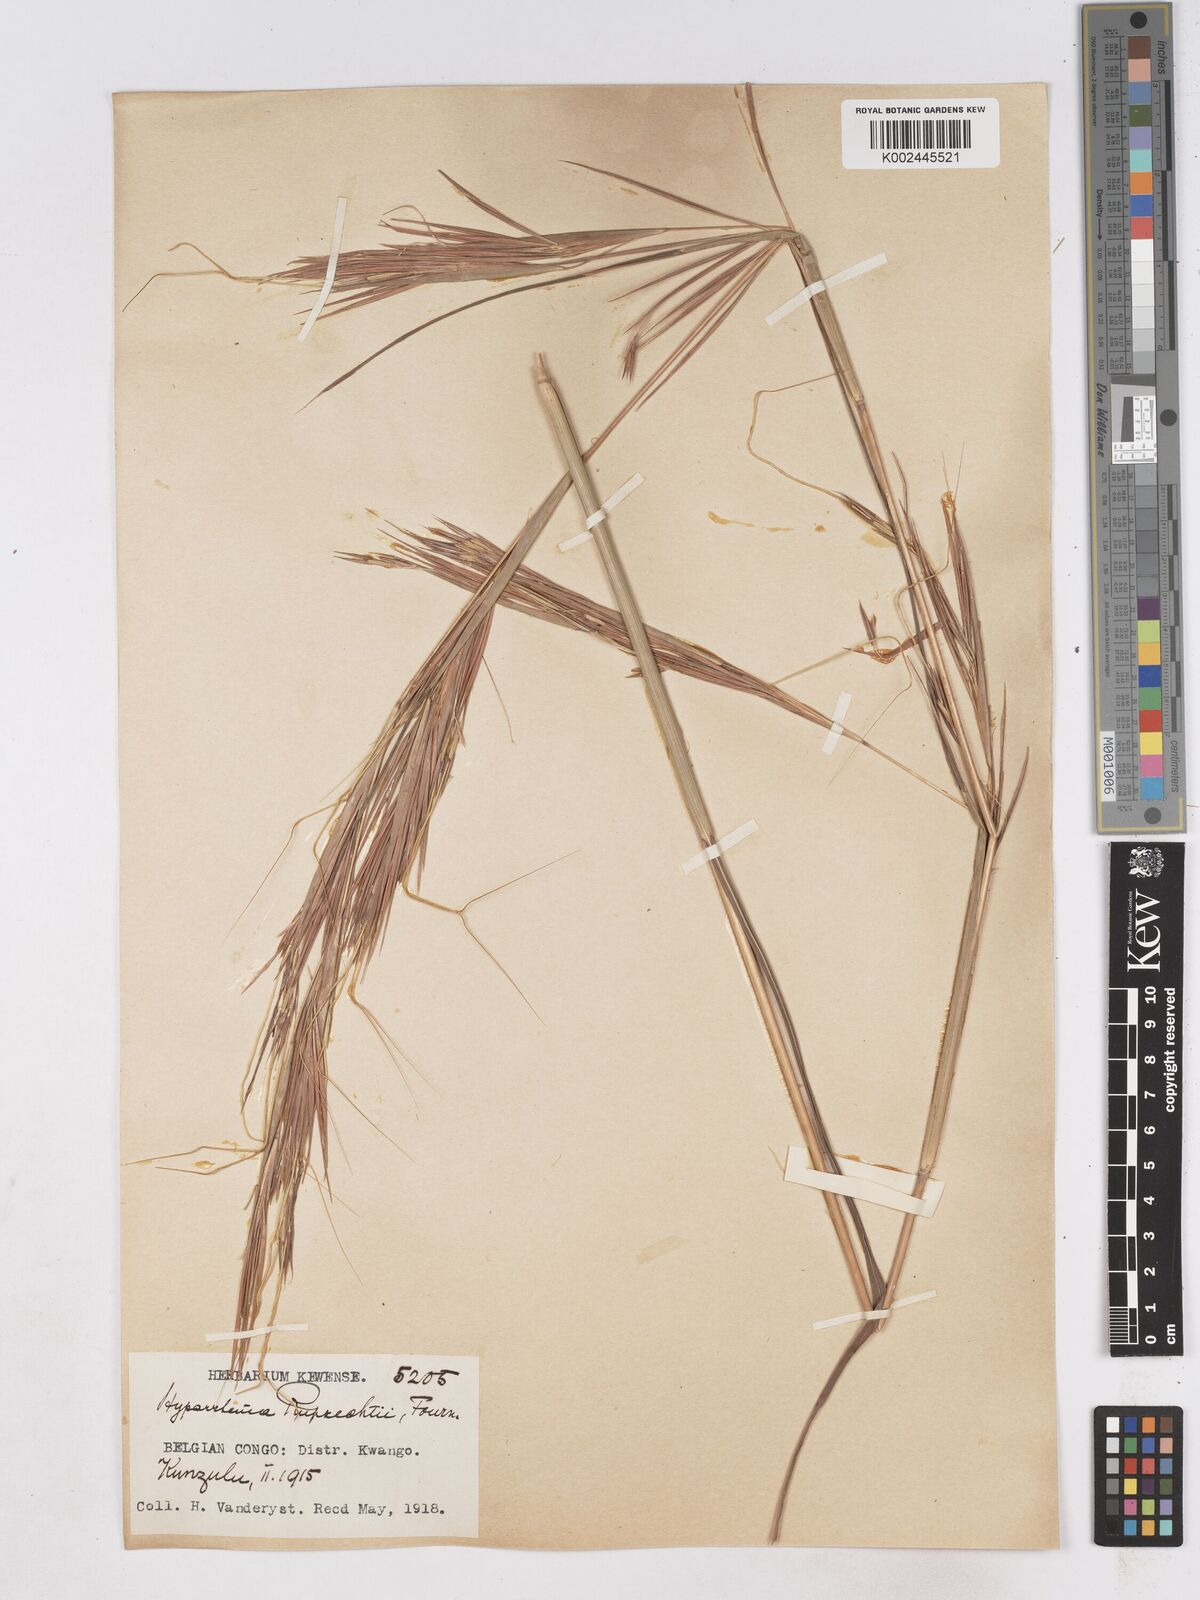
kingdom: Plantae
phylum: Tracheophyta
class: Liliopsida
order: Poales
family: Poaceae
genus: Hyperthelia
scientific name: Hyperthelia dissoluta
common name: Yellow thatching grass
